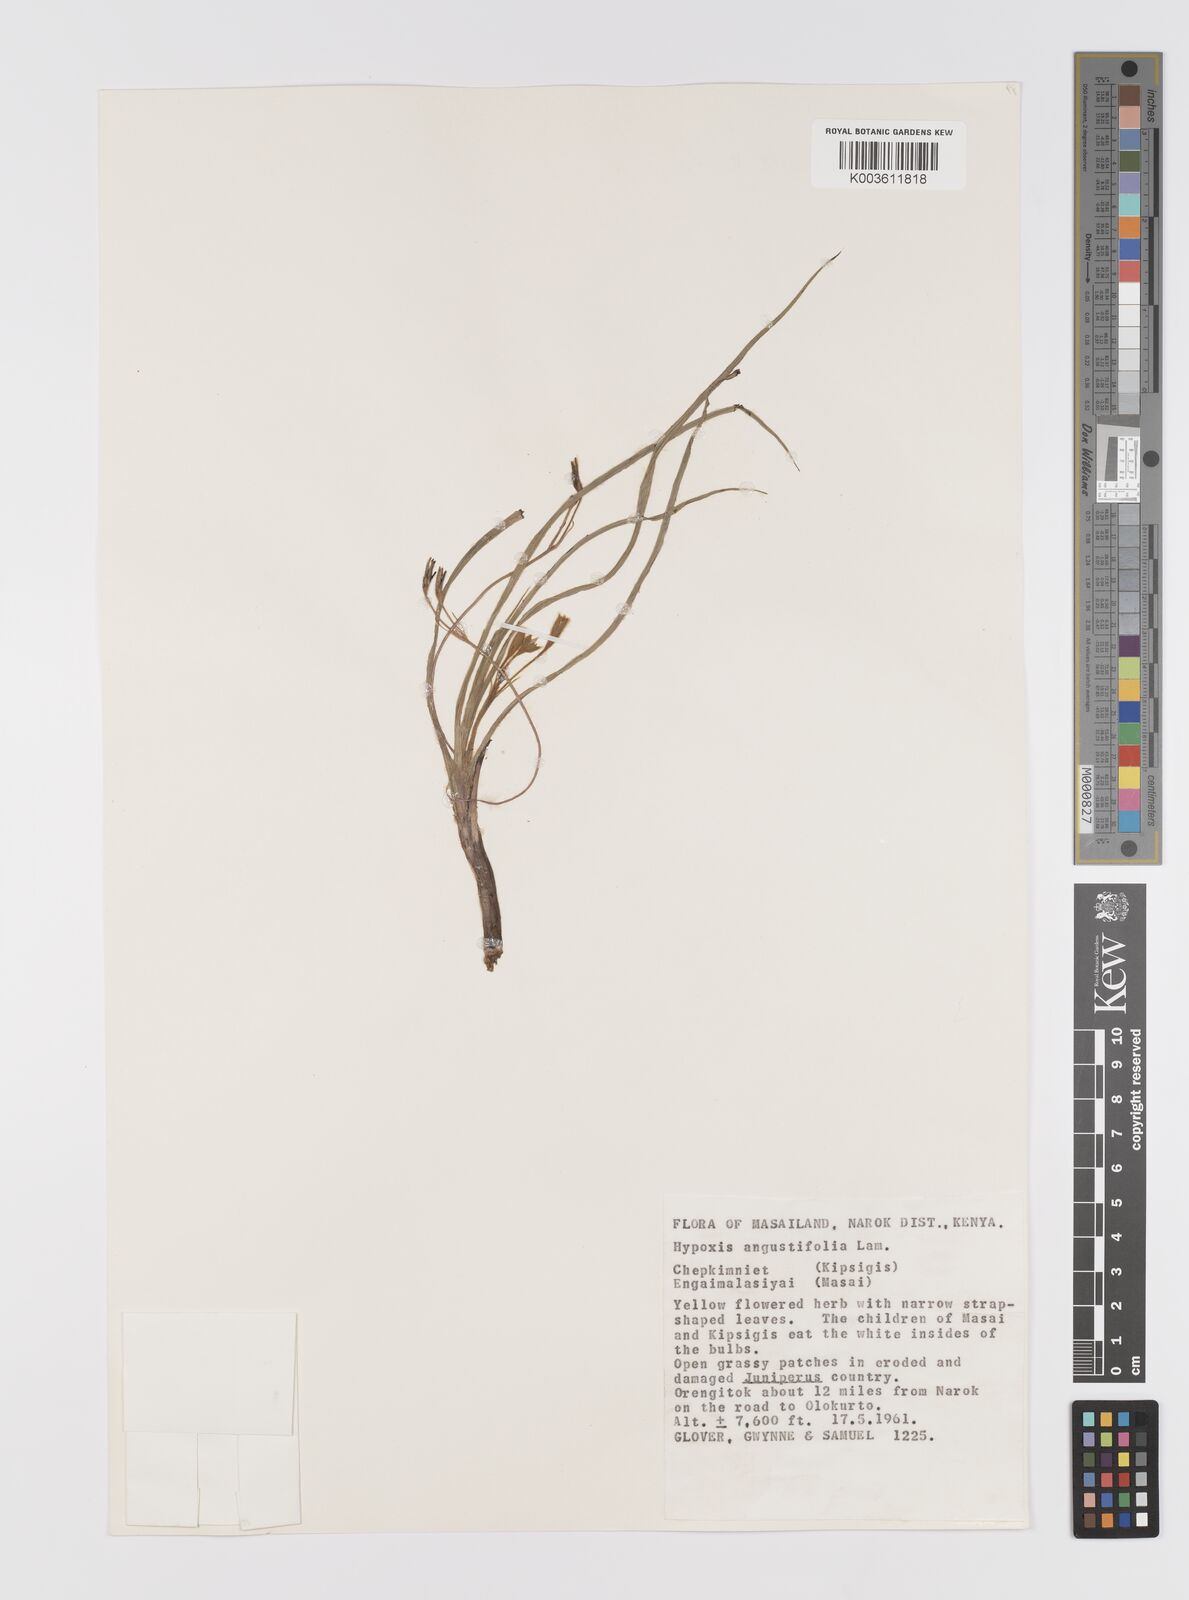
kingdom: Plantae
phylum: Tracheophyta
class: Liliopsida
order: Asparagales
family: Hypoxidaceae
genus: Hypoxis
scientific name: Hypoxis angustifolia
